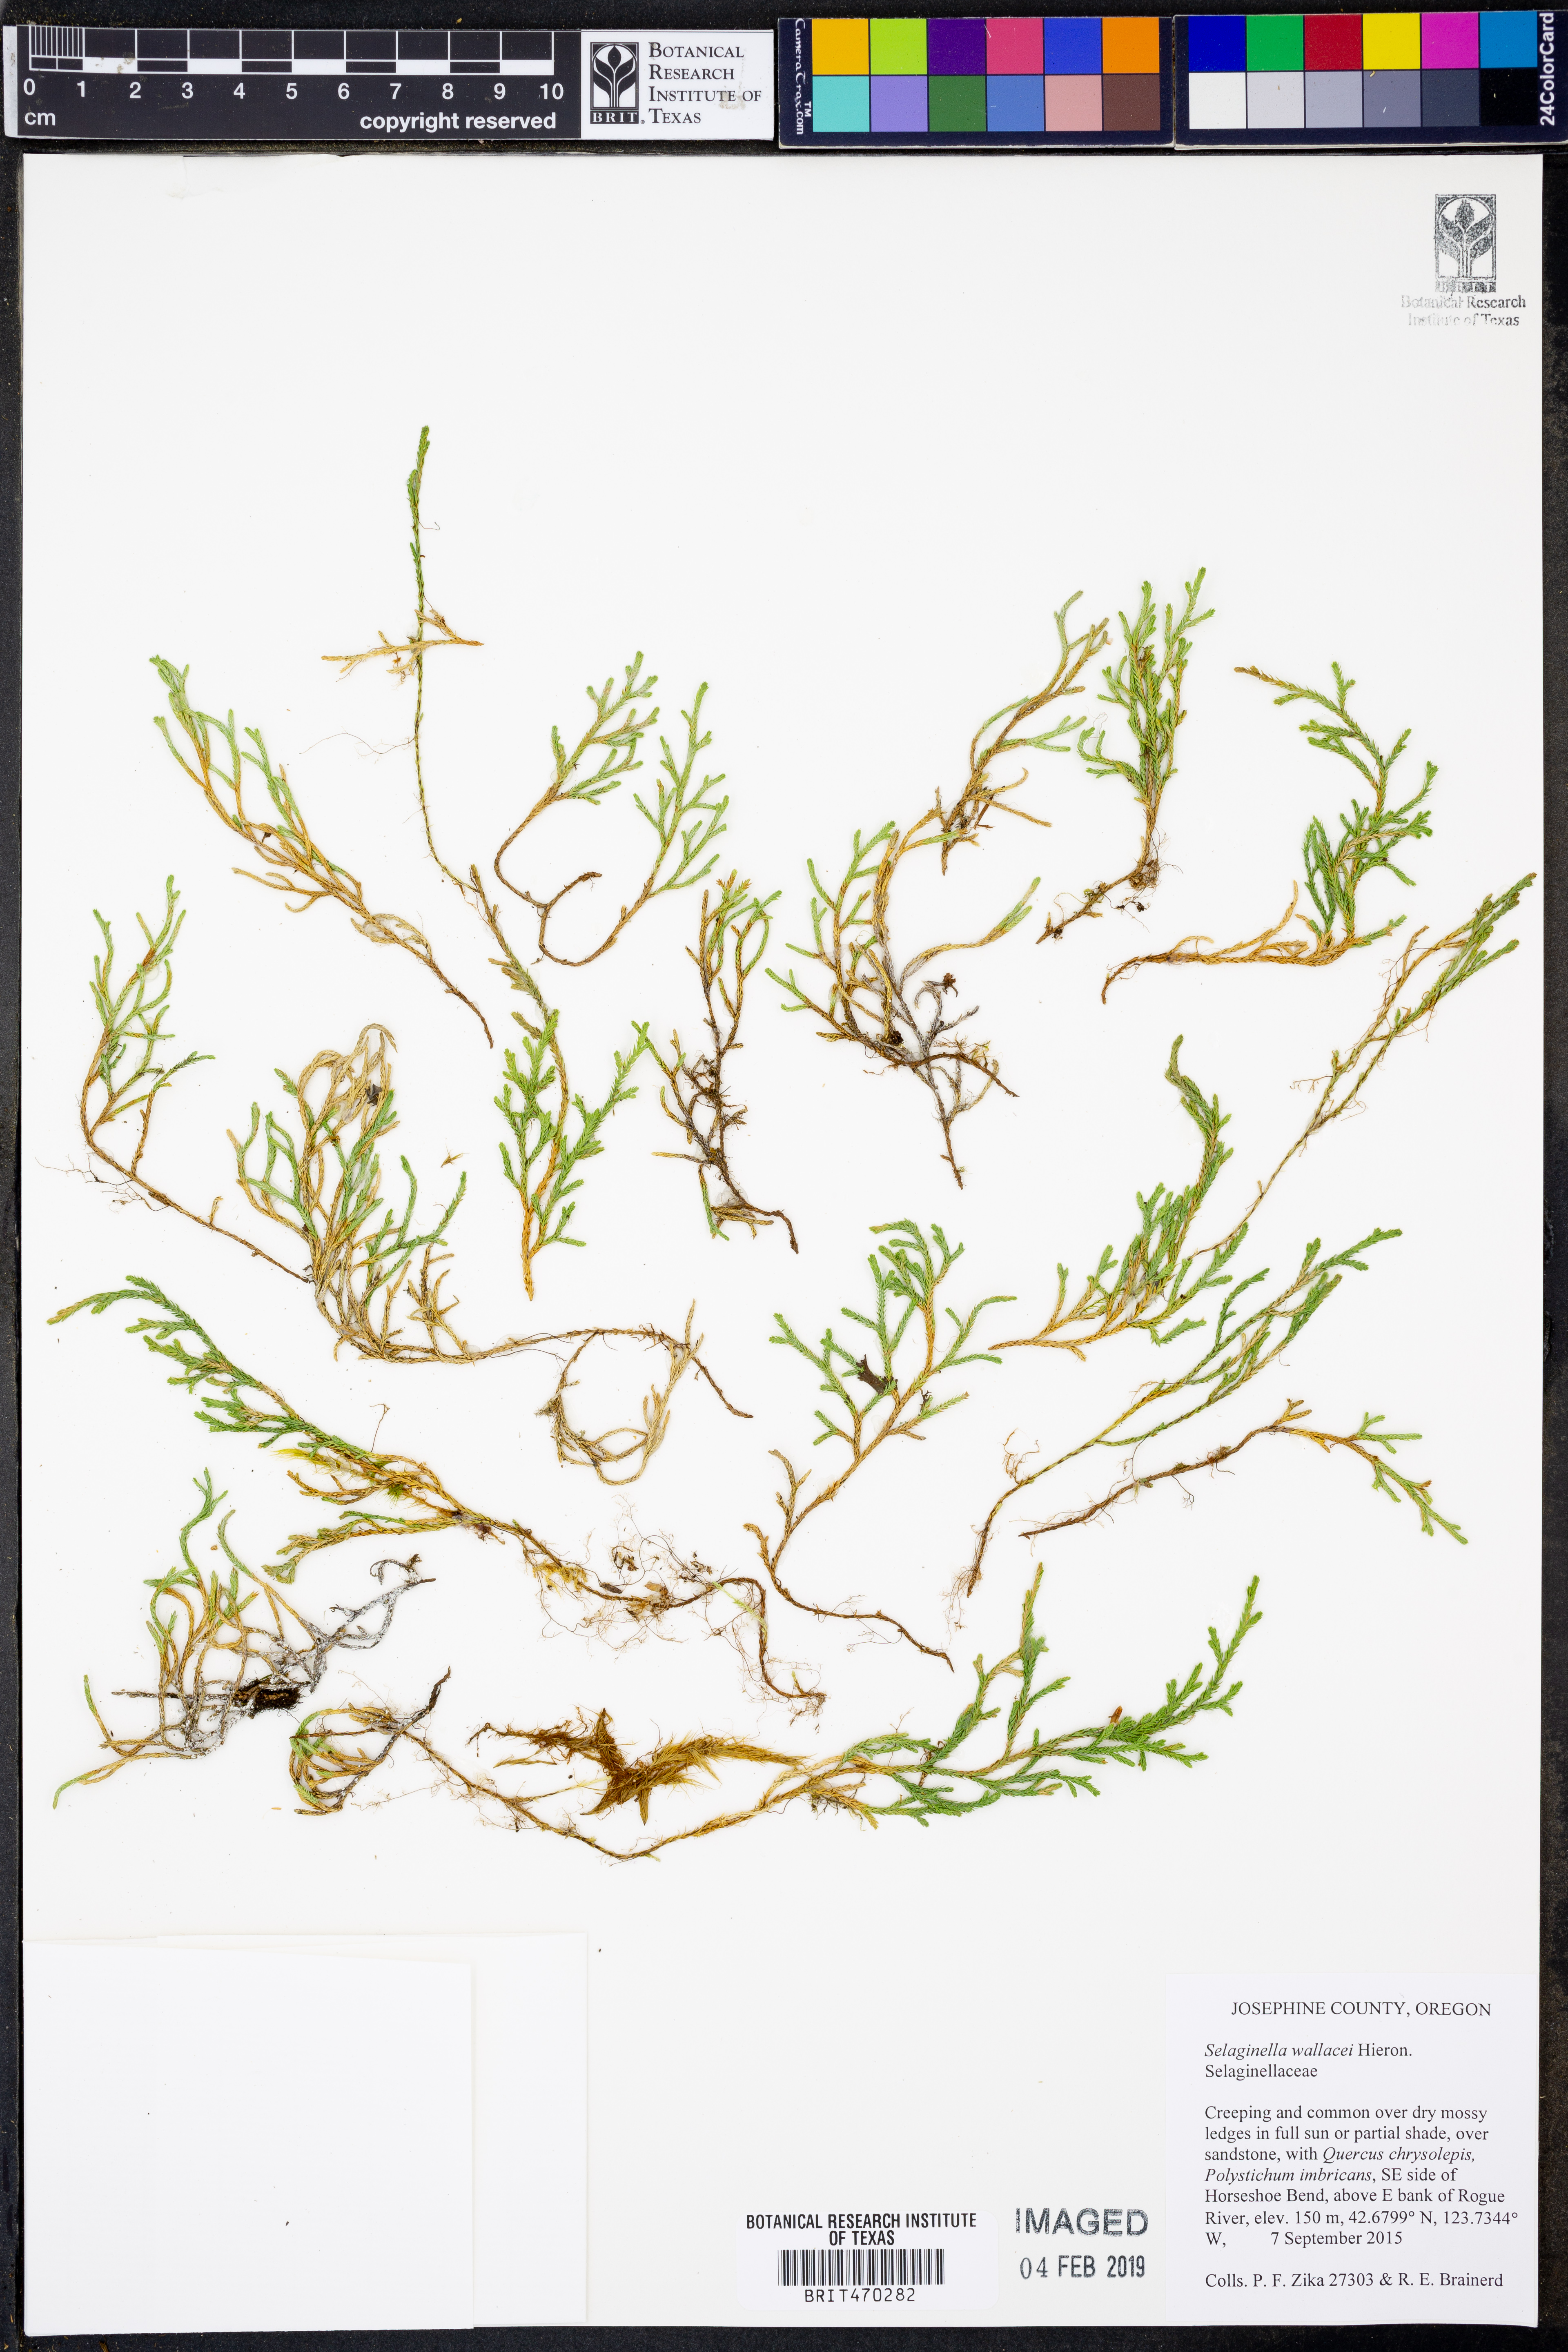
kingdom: Plantae
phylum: Tracheophyta
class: Lycopodiopsida
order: Selaginellales
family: Selaginellaceae
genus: Selaginella
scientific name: Selaginella wallacei
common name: Wallace's selaginella
